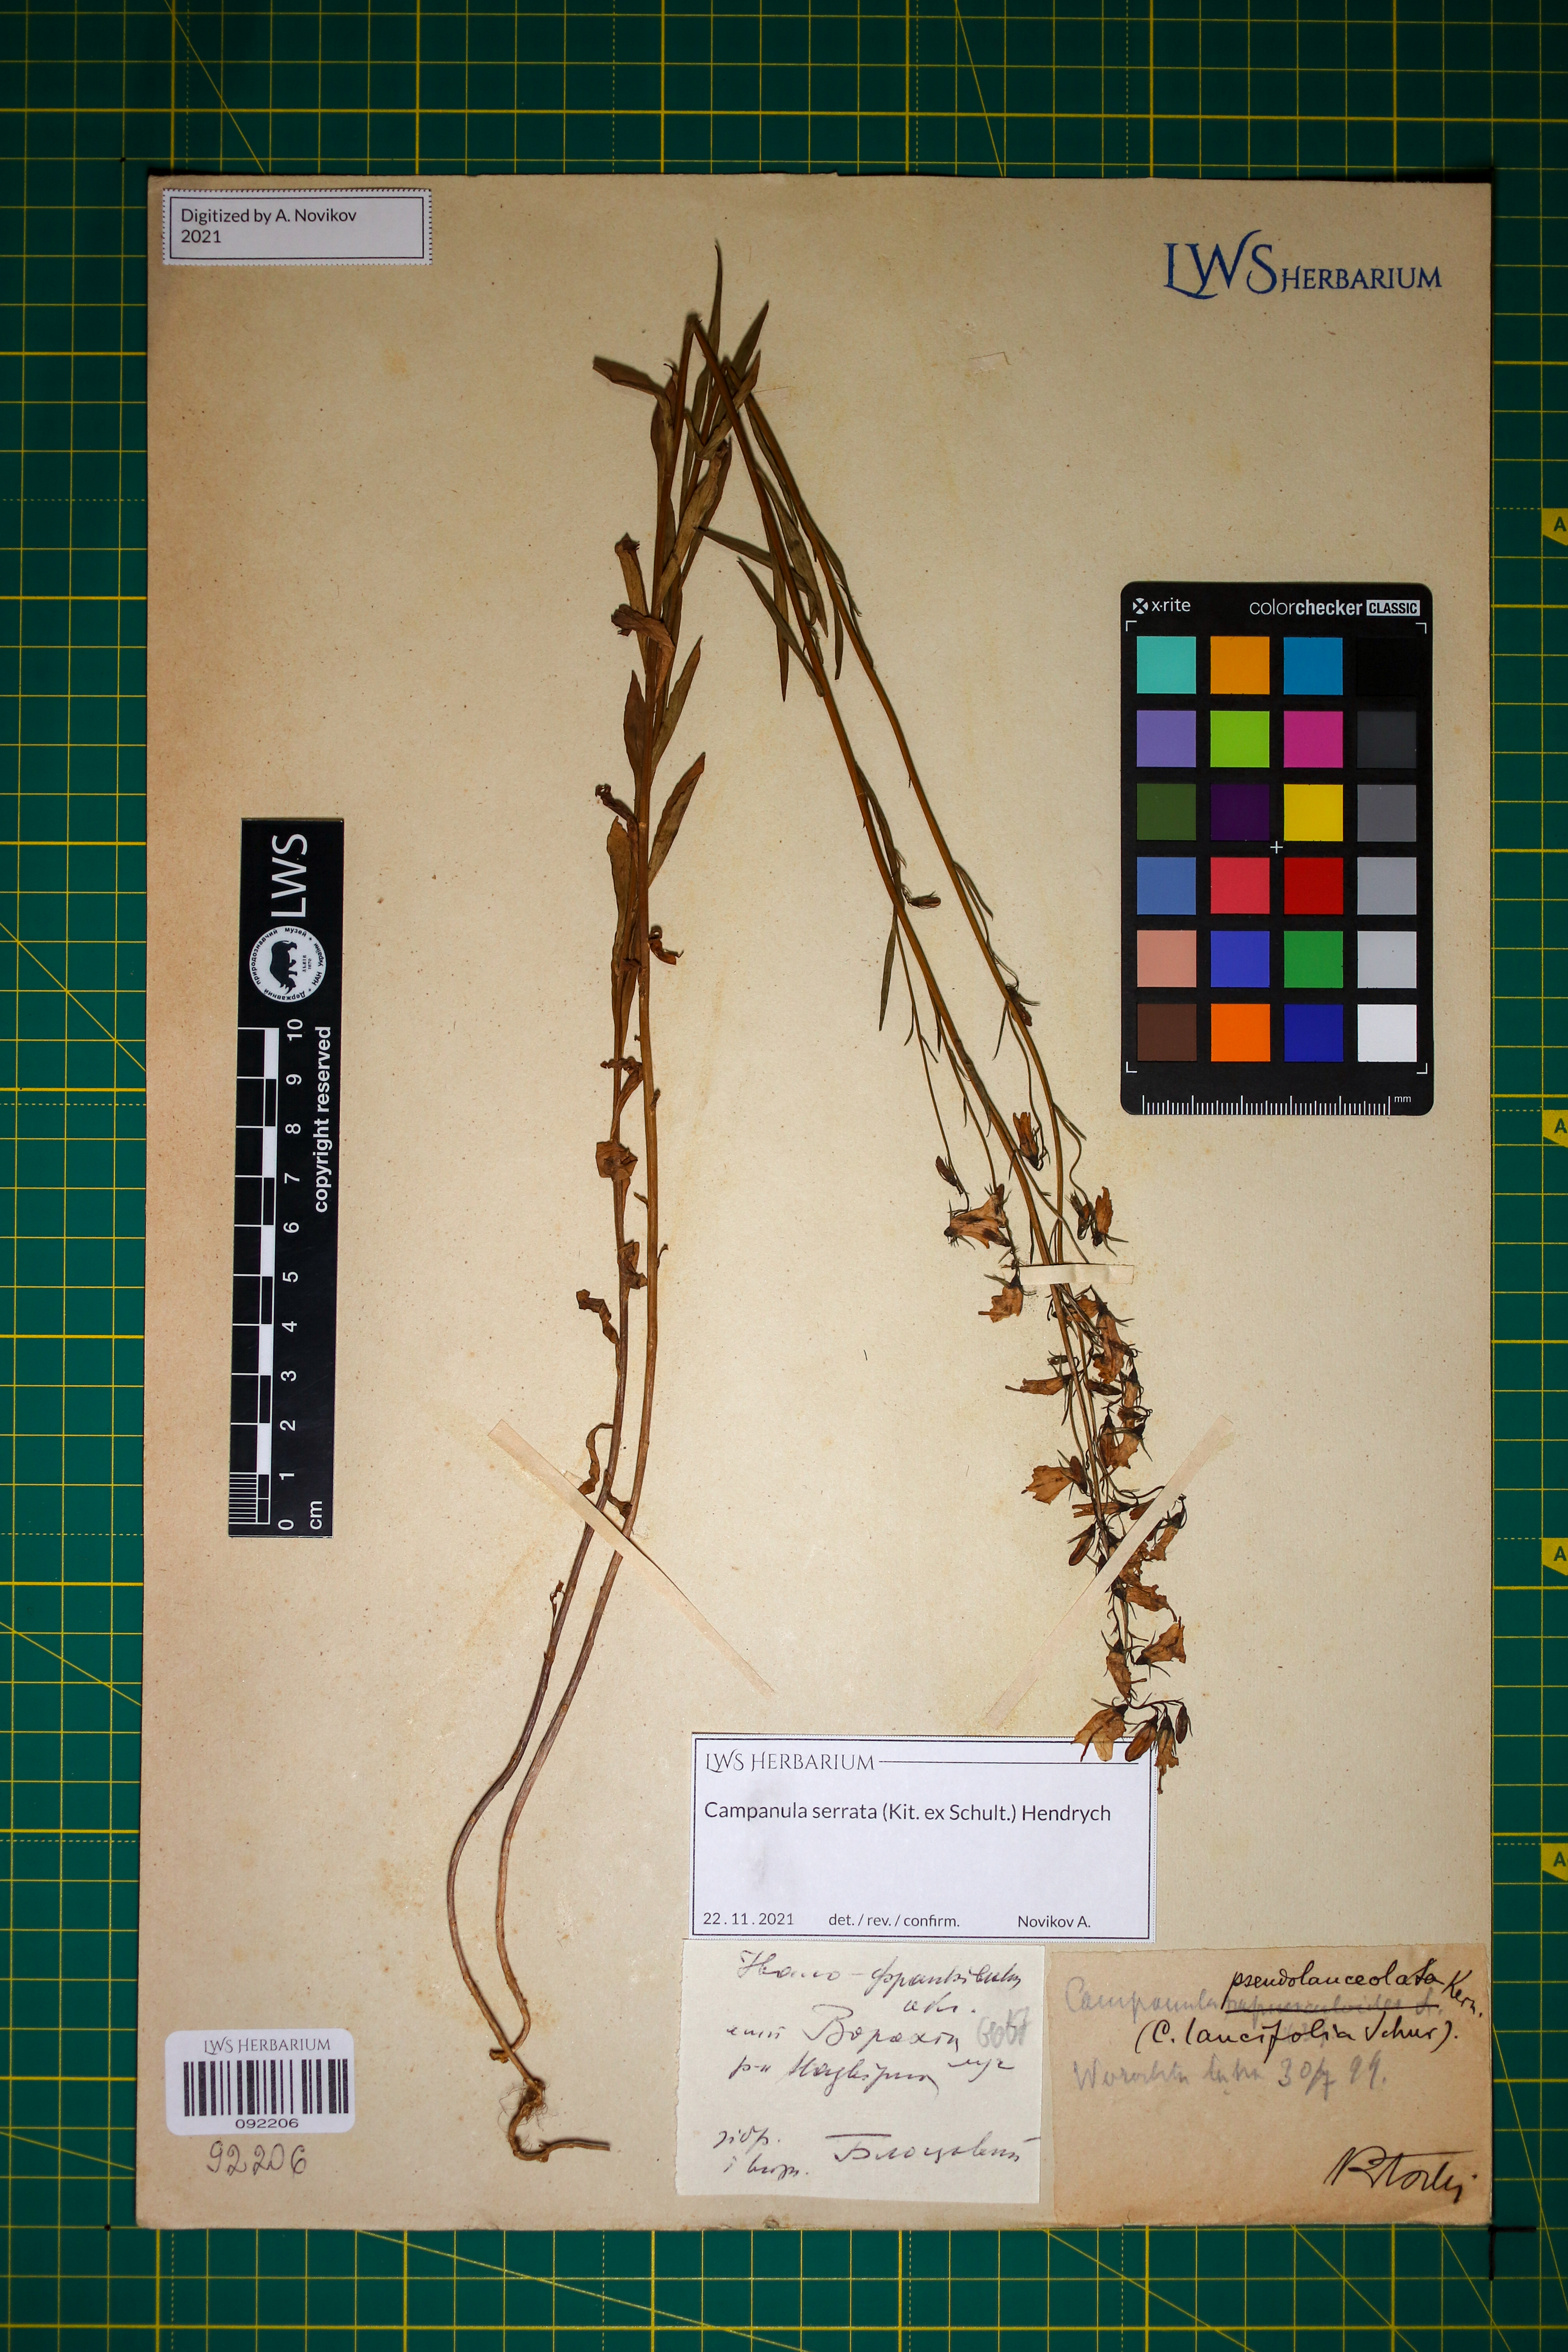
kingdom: Plantae
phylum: Tracheophyta
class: Magnoliopsida
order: Asterales
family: Campanulaceae
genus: Campanula
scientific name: Campanula serrata
